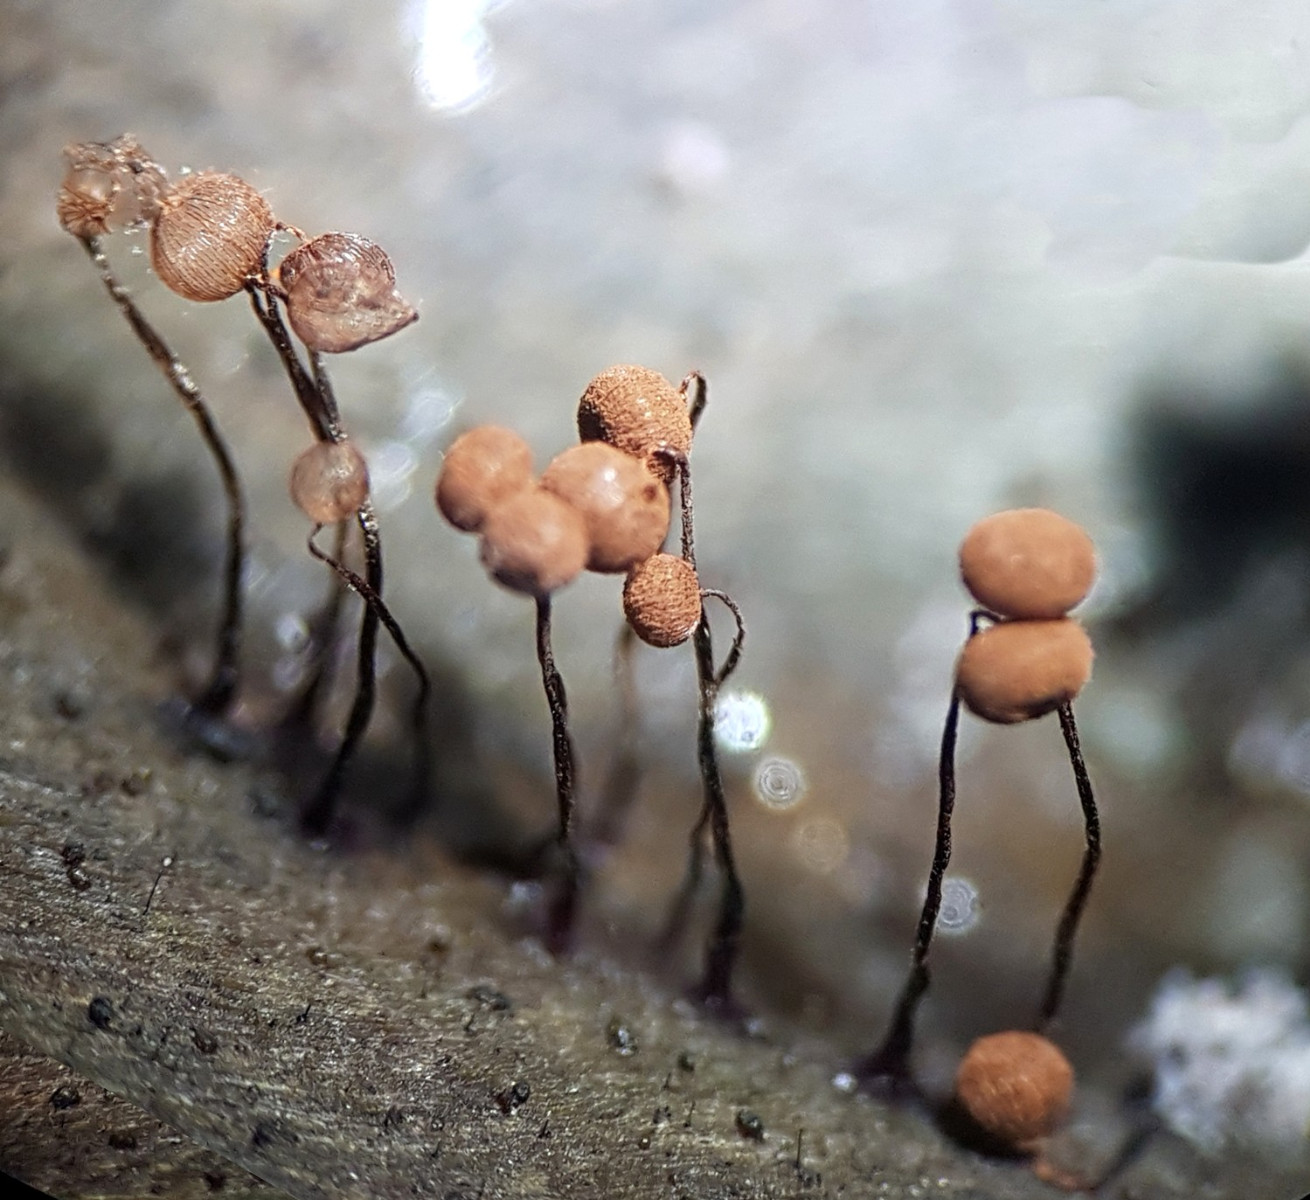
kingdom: Protozoa
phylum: Mycetozoa
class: Myxomycetes
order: Cribrariales
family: Cribrariaceae
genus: Cribraria
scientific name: Cribraria cancellata
